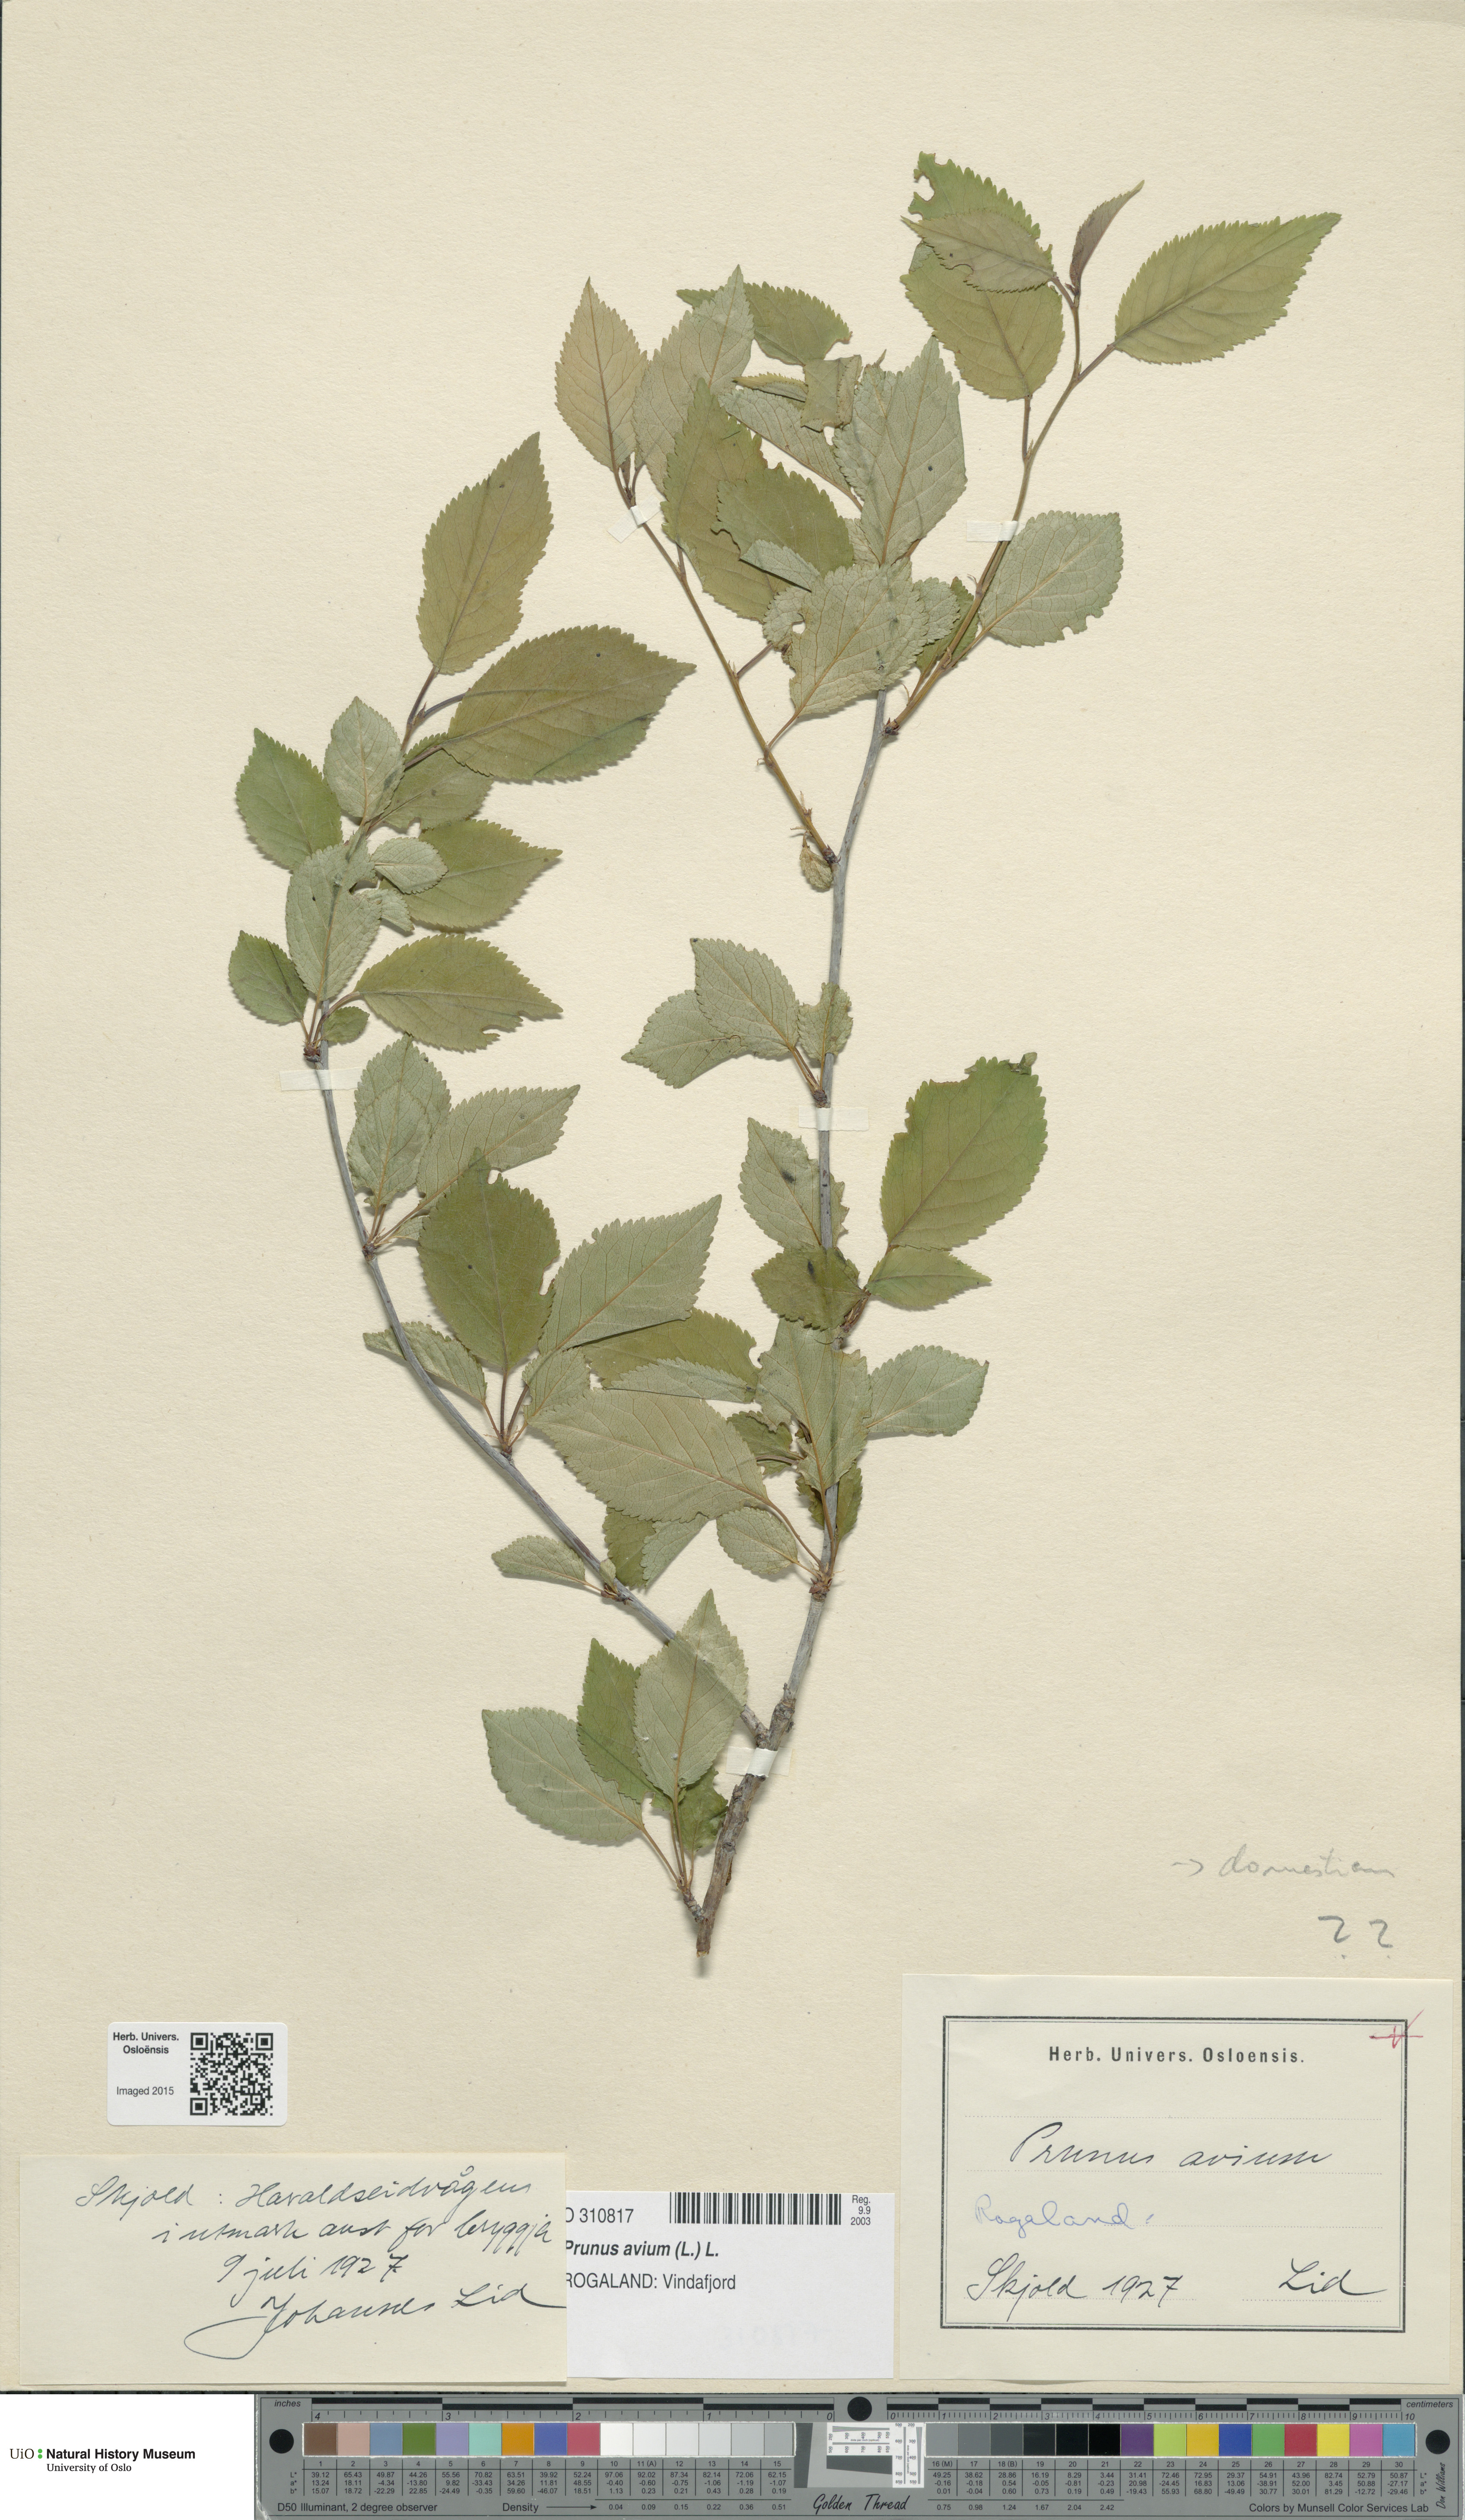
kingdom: Plantae
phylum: Tracheophyta
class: Magnoliopsida
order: Rosales
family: Rosaceae
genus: Prunus
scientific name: Prunus avium
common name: Sweet cherry
